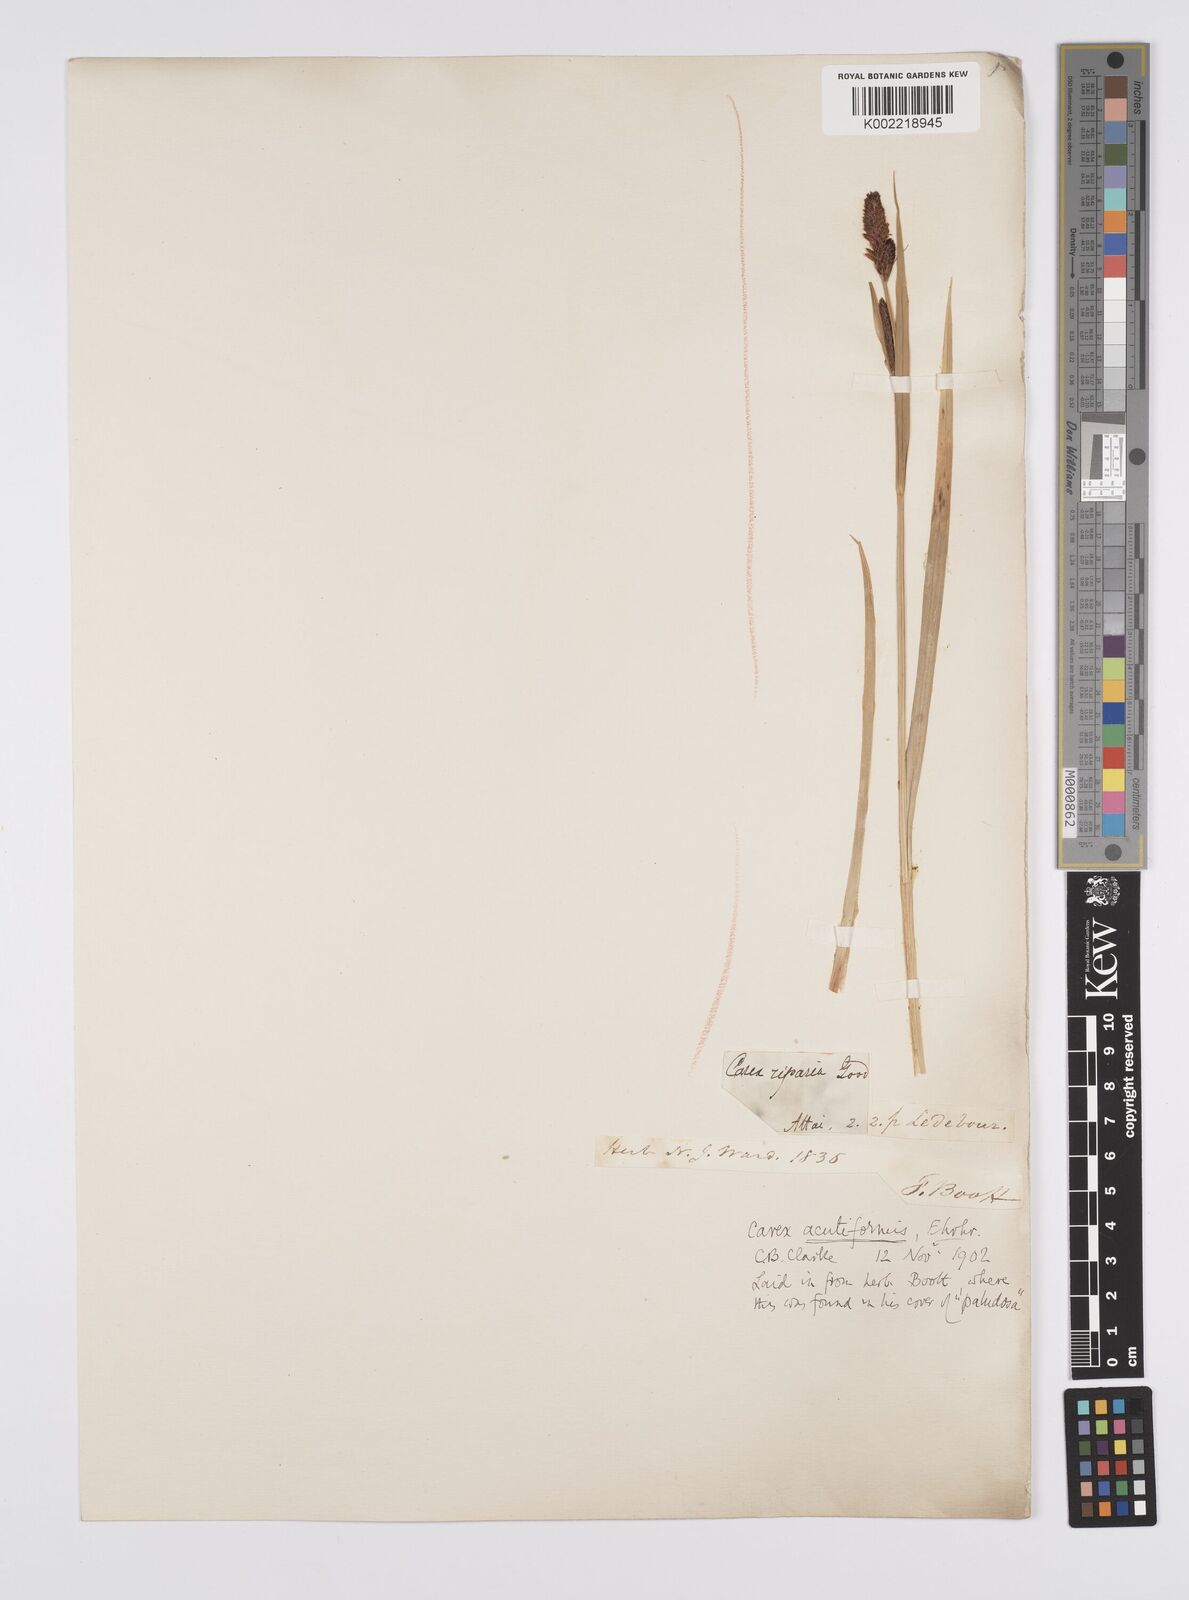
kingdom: Plantae
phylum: Tracheophyta
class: Liliopsida
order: Poales
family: Cyperaceae
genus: Carex
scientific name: Carex acutiformis
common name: Lesser pond-sedge
